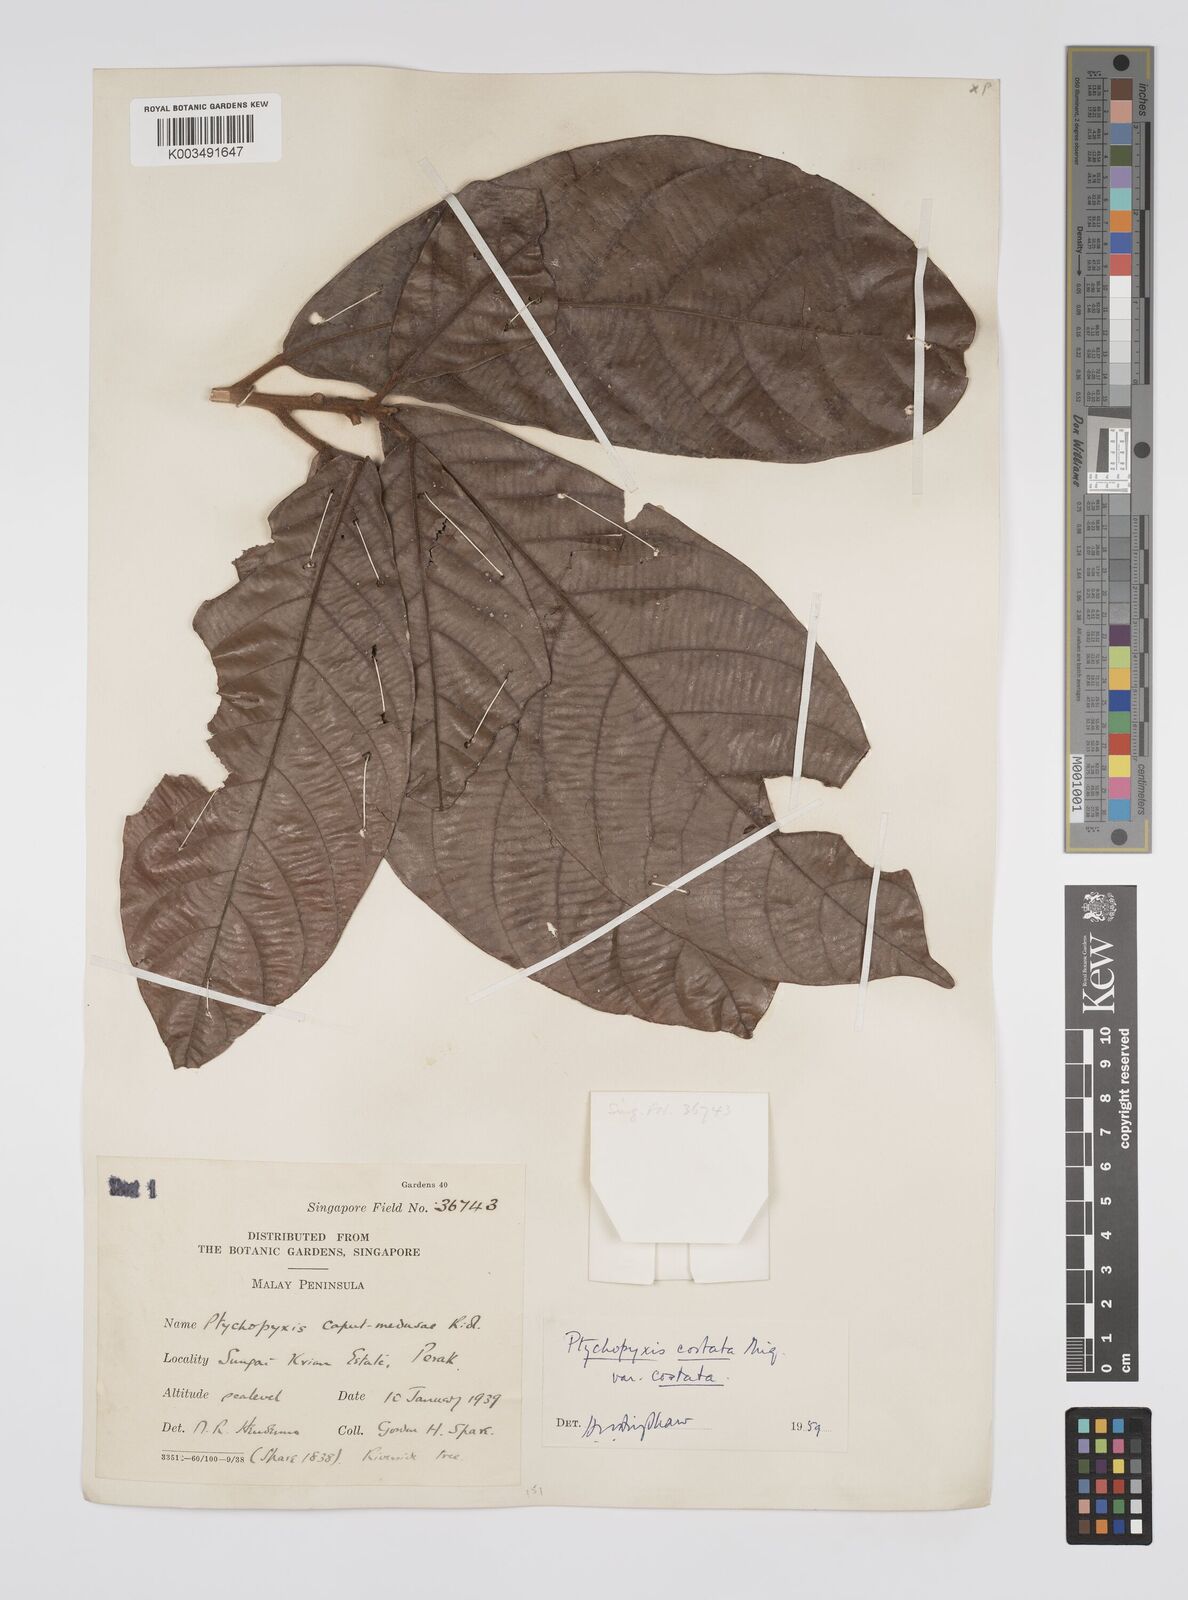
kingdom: Plantae
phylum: Tracheophyta
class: Magnoliopsida
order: Malpighiales
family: Euphorbiaceae
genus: Ptychopyxis
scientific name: Ptychopyxis costata
